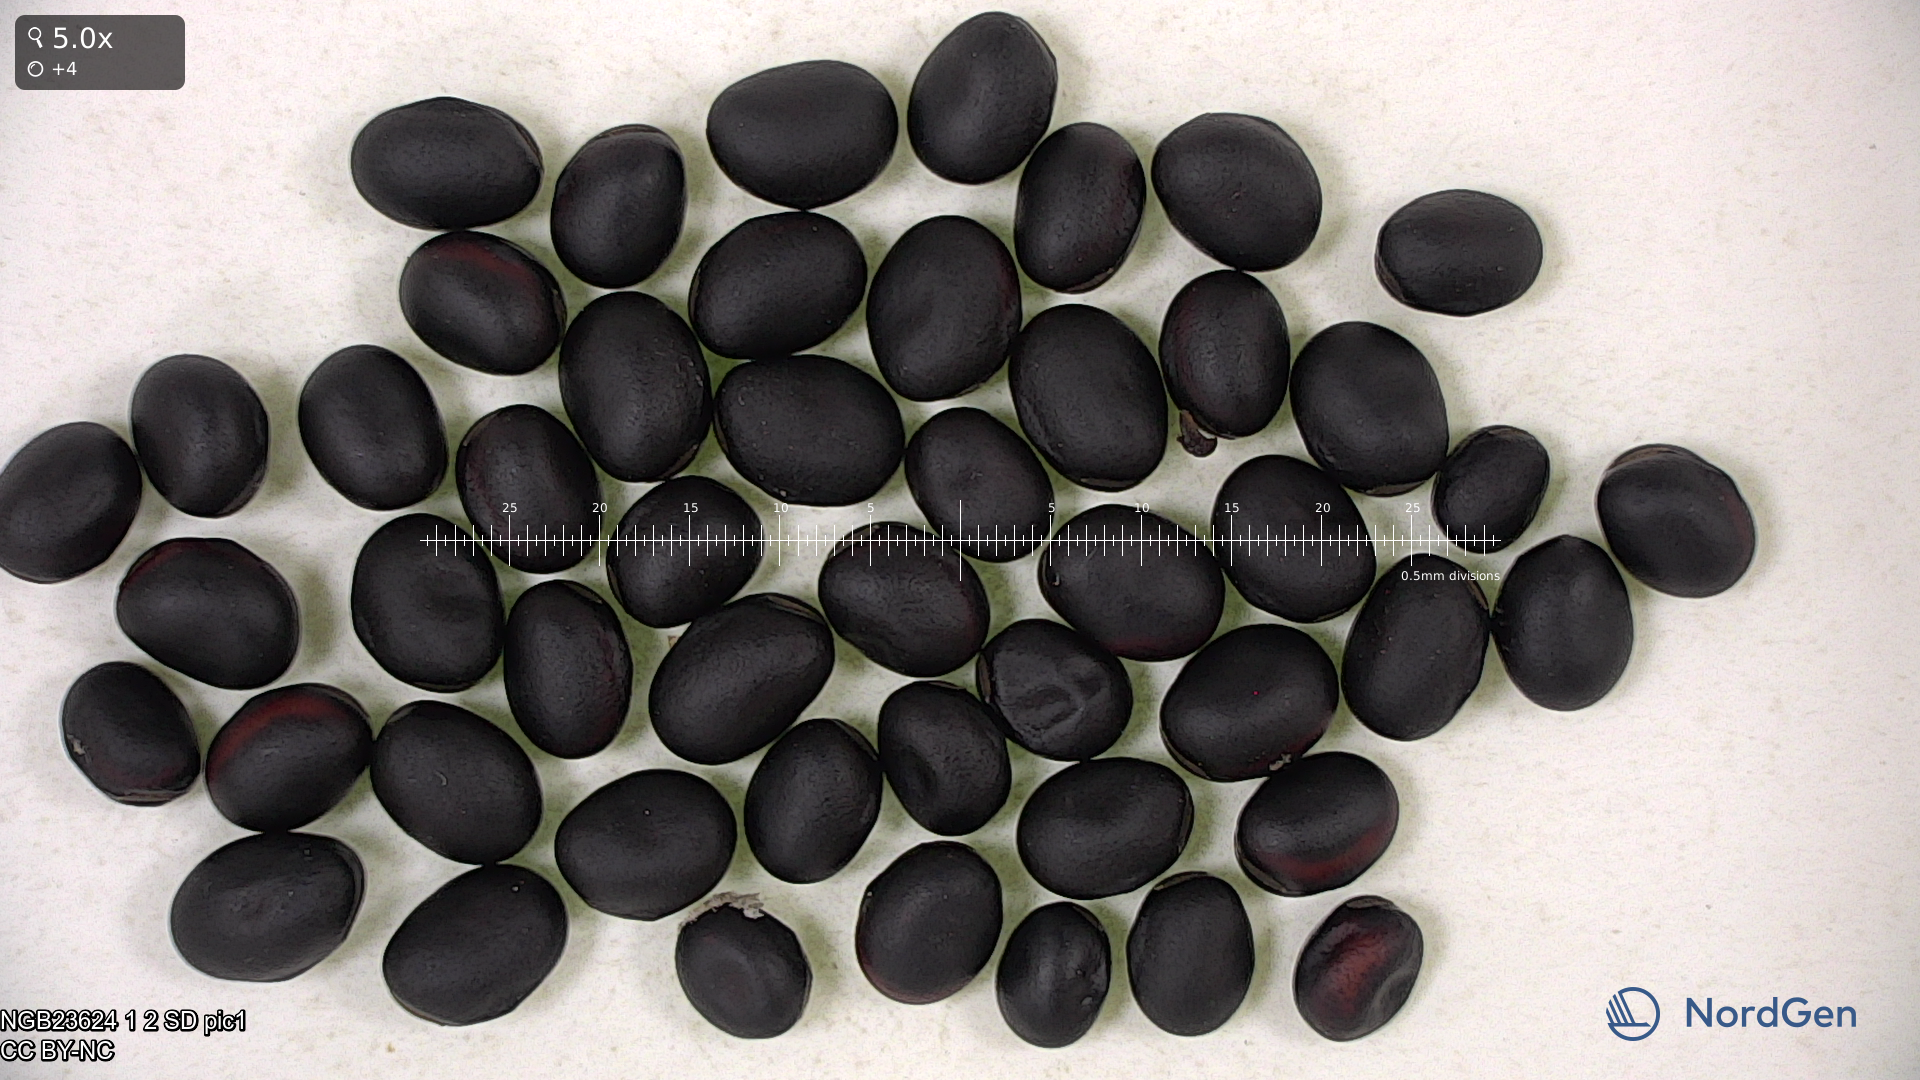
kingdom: Plantae
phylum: Tracheophyta
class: Magnoliopsida
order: Fabales
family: Fabaceae
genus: Vicia
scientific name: Vicia faba
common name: Broad bean
